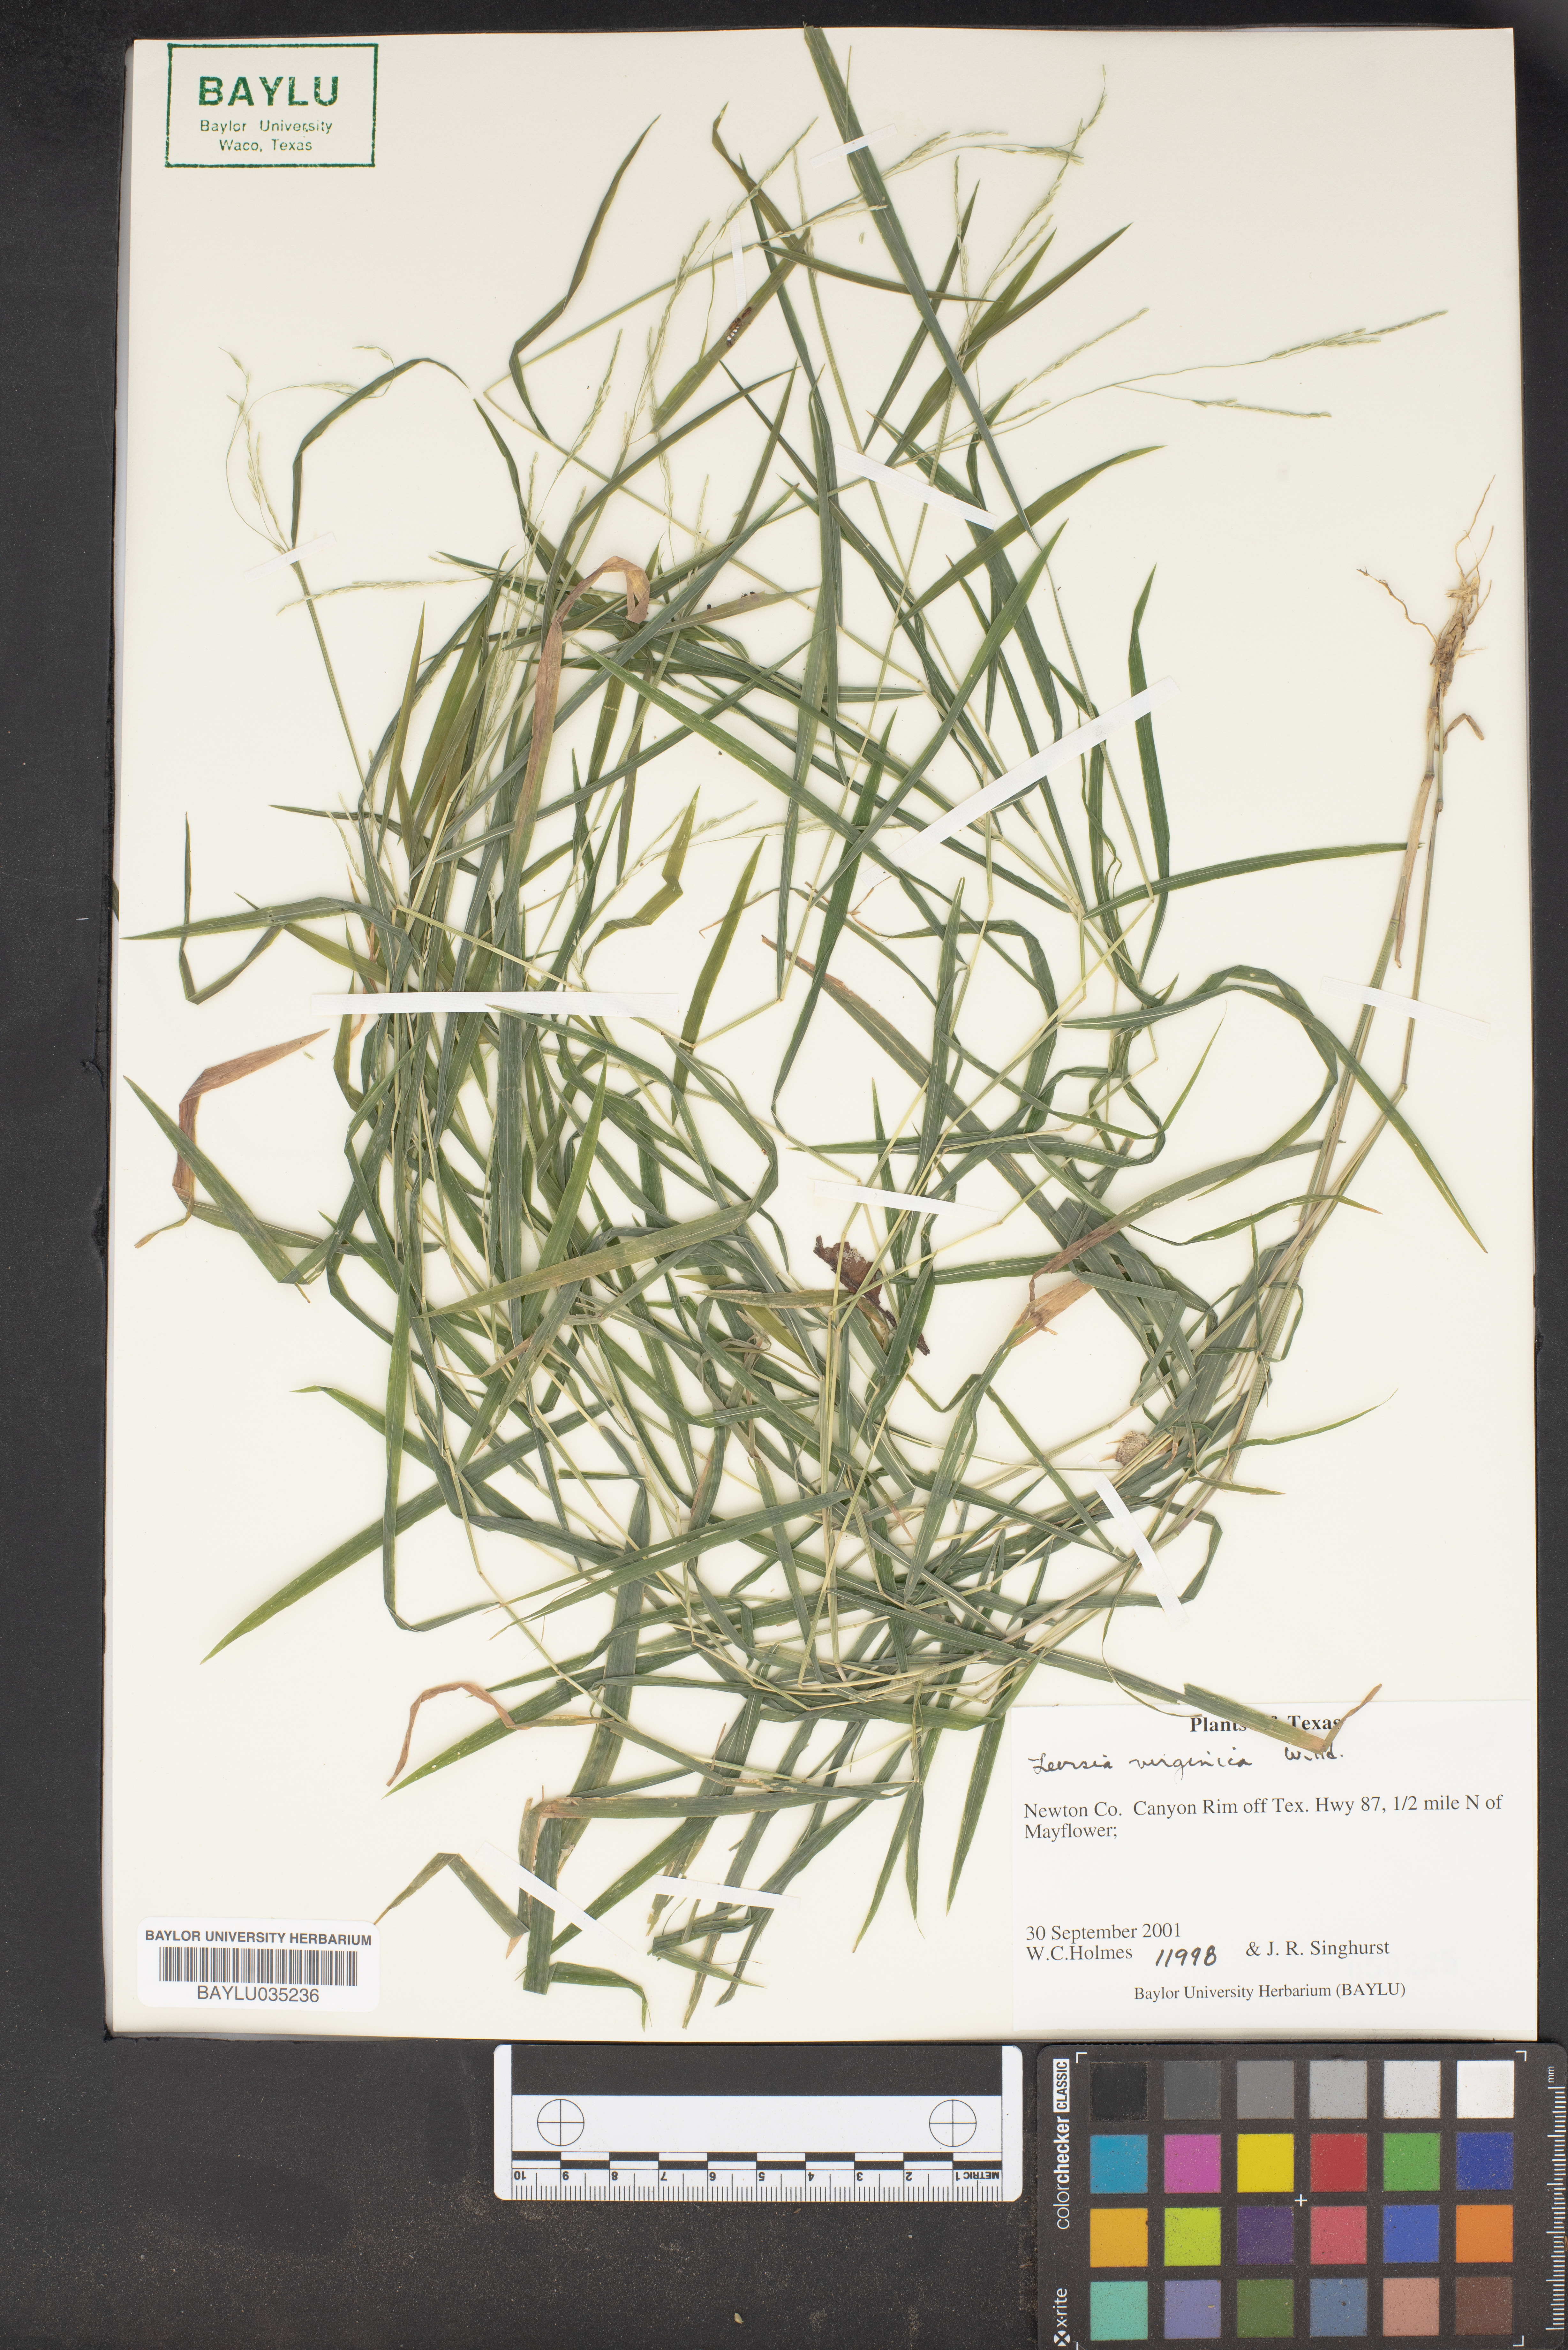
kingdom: Plantae
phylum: Tracheophyta
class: Liliopsida
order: Poales
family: Poaceae
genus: Leersia
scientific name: Leersia virginica
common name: White cutgrass
